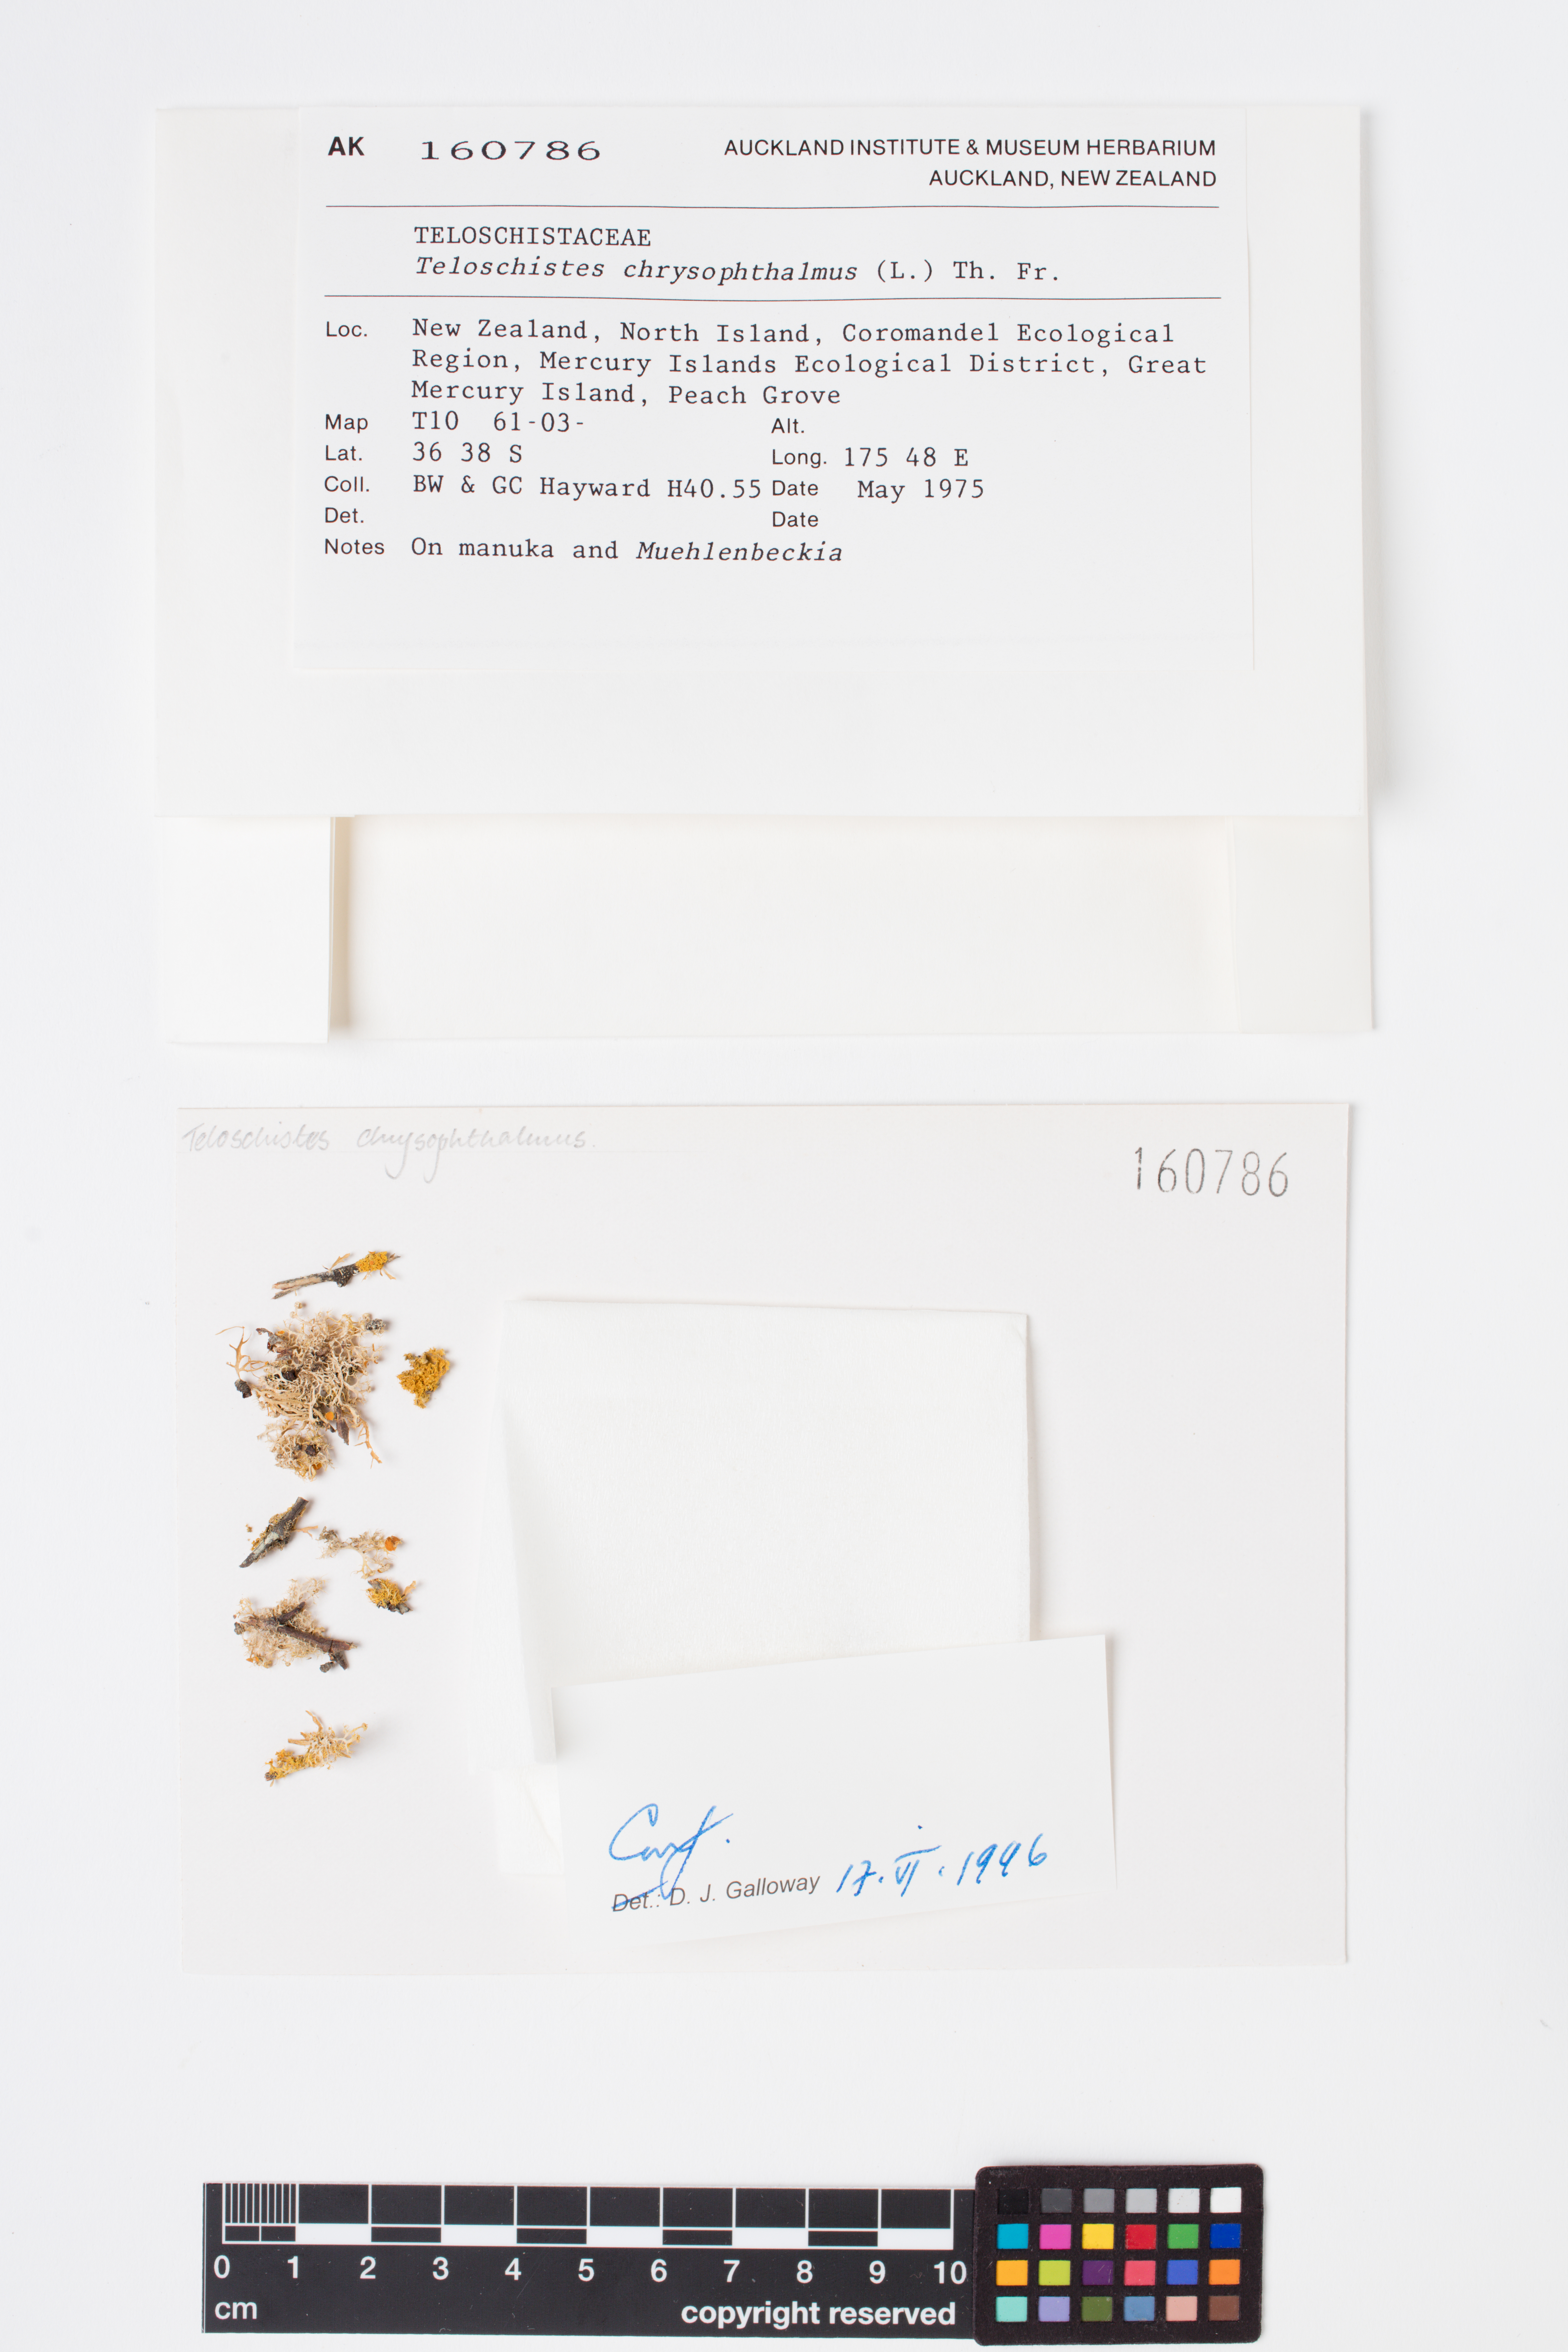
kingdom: Fungi
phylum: Ascomycota
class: Lecanoromycetes
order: Teloschistales
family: Teloschistaceae
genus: Niorma
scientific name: Niorma chrysophthalma
